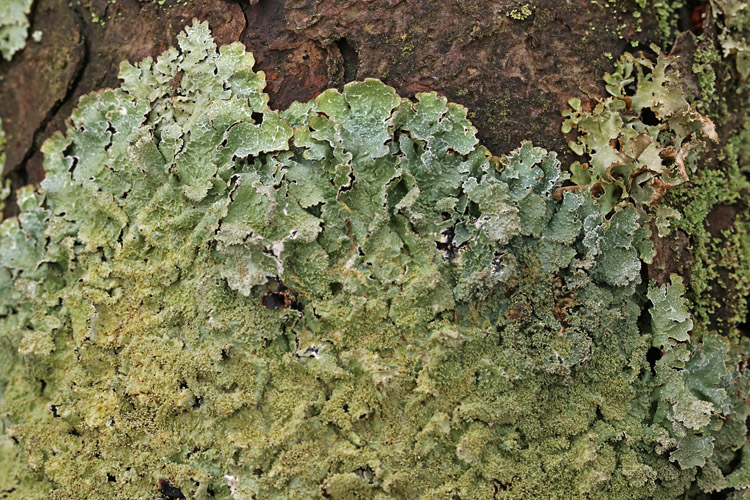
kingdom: Fungi
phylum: Ascomycota
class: Lecanoromycetes
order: Lecanorales
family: Parmeliaceae
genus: Parmelia
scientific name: Parmelia saxatilis
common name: farve-skållav
